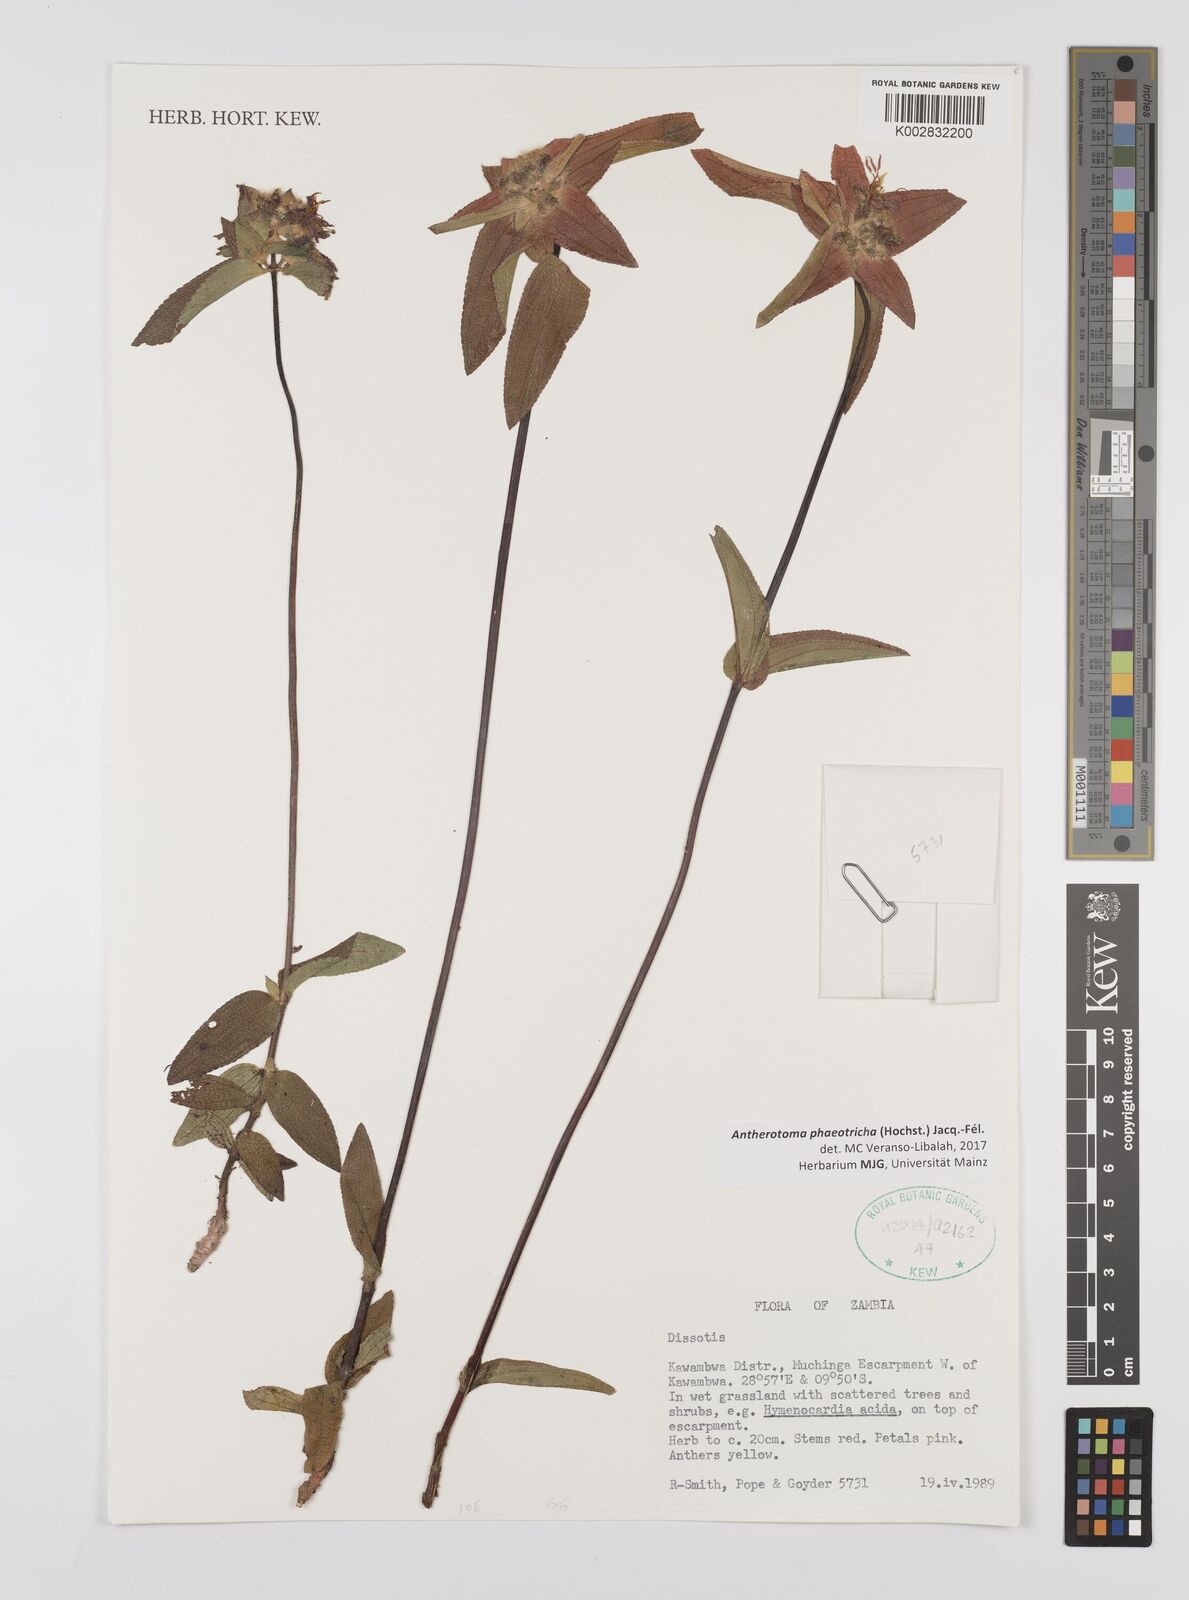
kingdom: Plantae
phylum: Tracheophyta
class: Magnoliopsida
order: Myrtales
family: Melastomataceae
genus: Antherotoma
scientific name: Antherotoma phaeotricha
